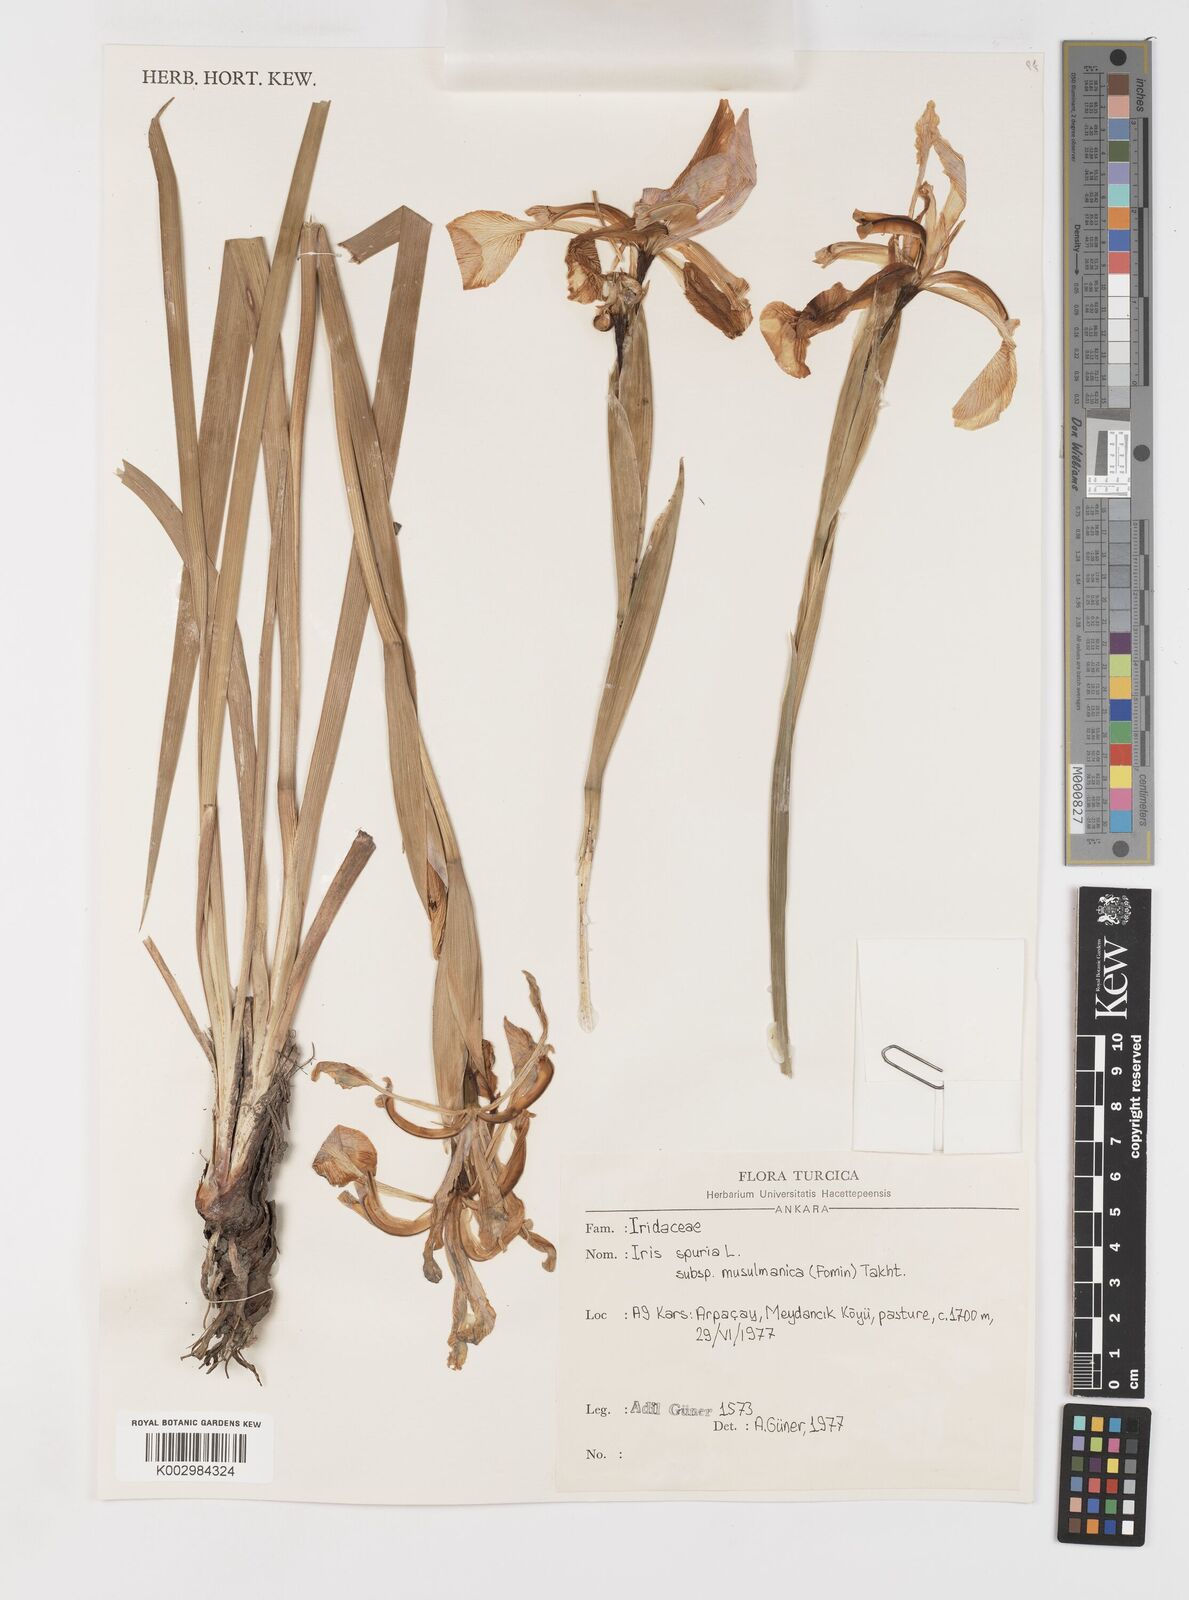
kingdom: Plantae
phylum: Tracheophyta
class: Liliopsida
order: Asparagales
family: Iridaceae
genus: Iris
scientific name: Iris spuria
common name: Blue iris
